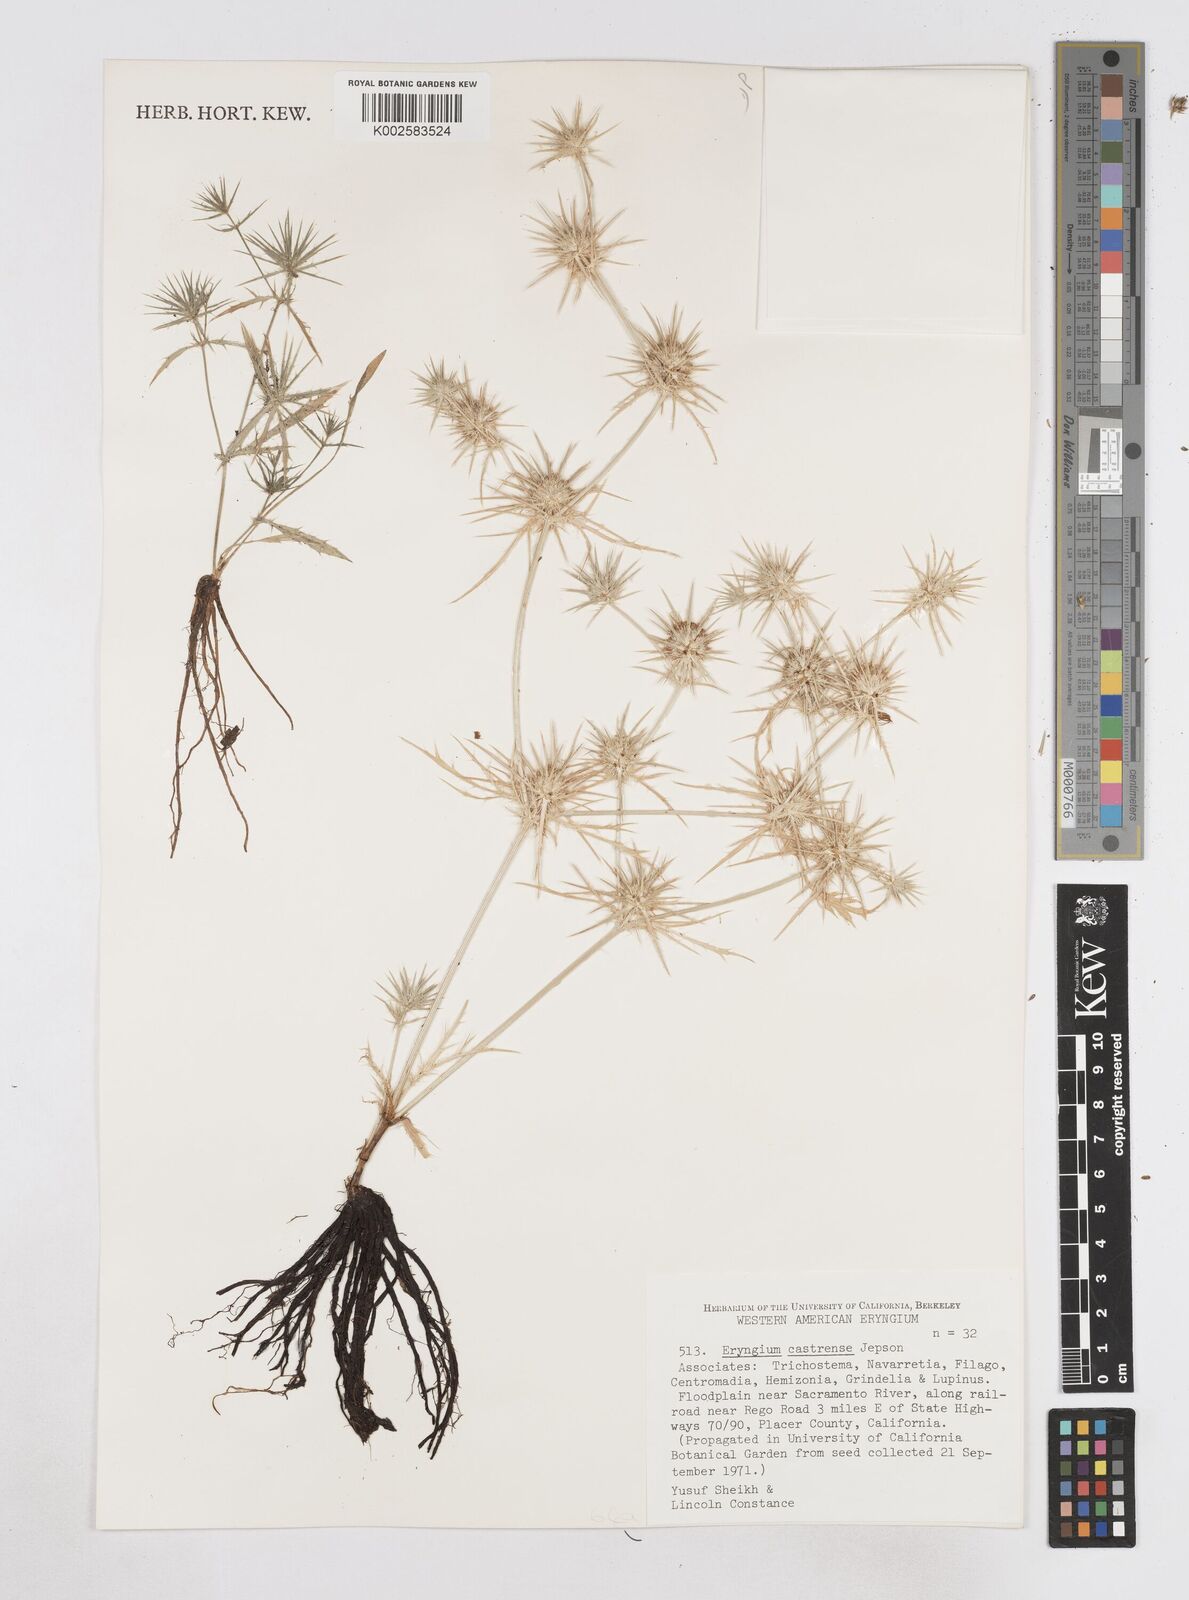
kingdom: Plantae
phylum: Tracheophyta
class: Magnoliopsida
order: Apiales
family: Apiaceae
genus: Eryngium
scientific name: Eryngium castrense
